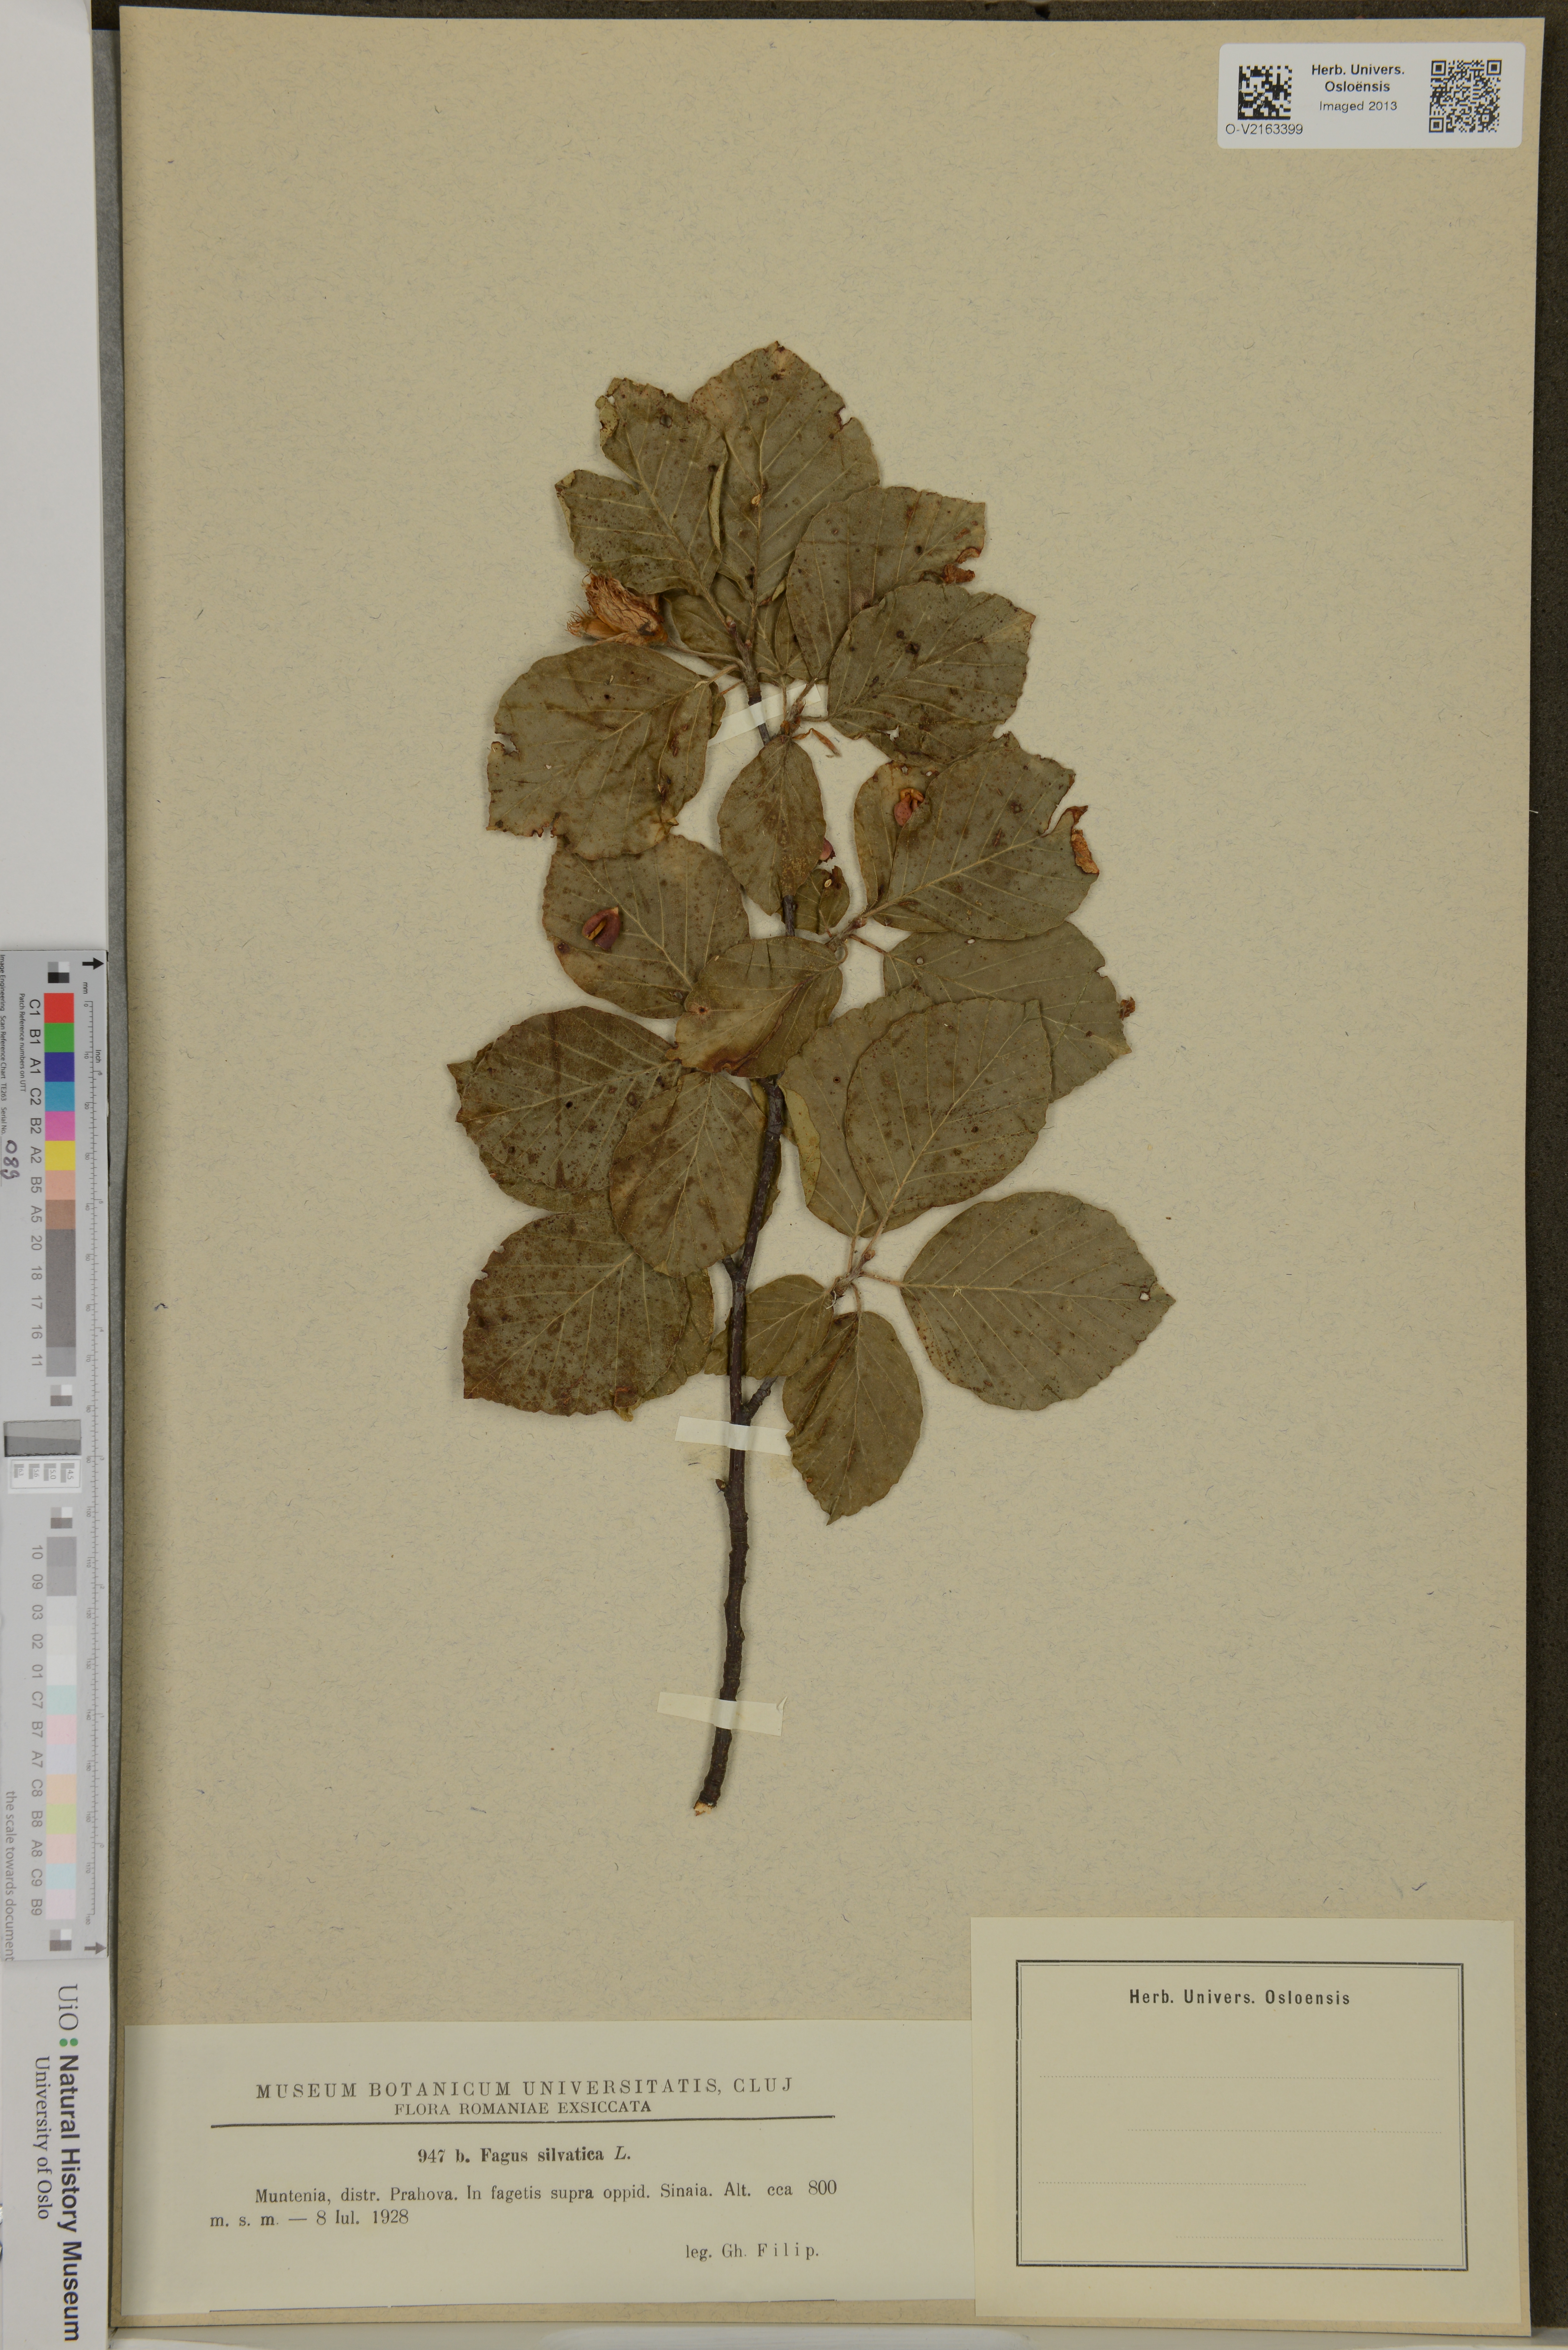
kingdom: Plantae
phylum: Tracheophyta
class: Magnoliopsida
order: Fagales
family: Fagaceae
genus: Fagus
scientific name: Fagus sylvatica
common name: Beech
